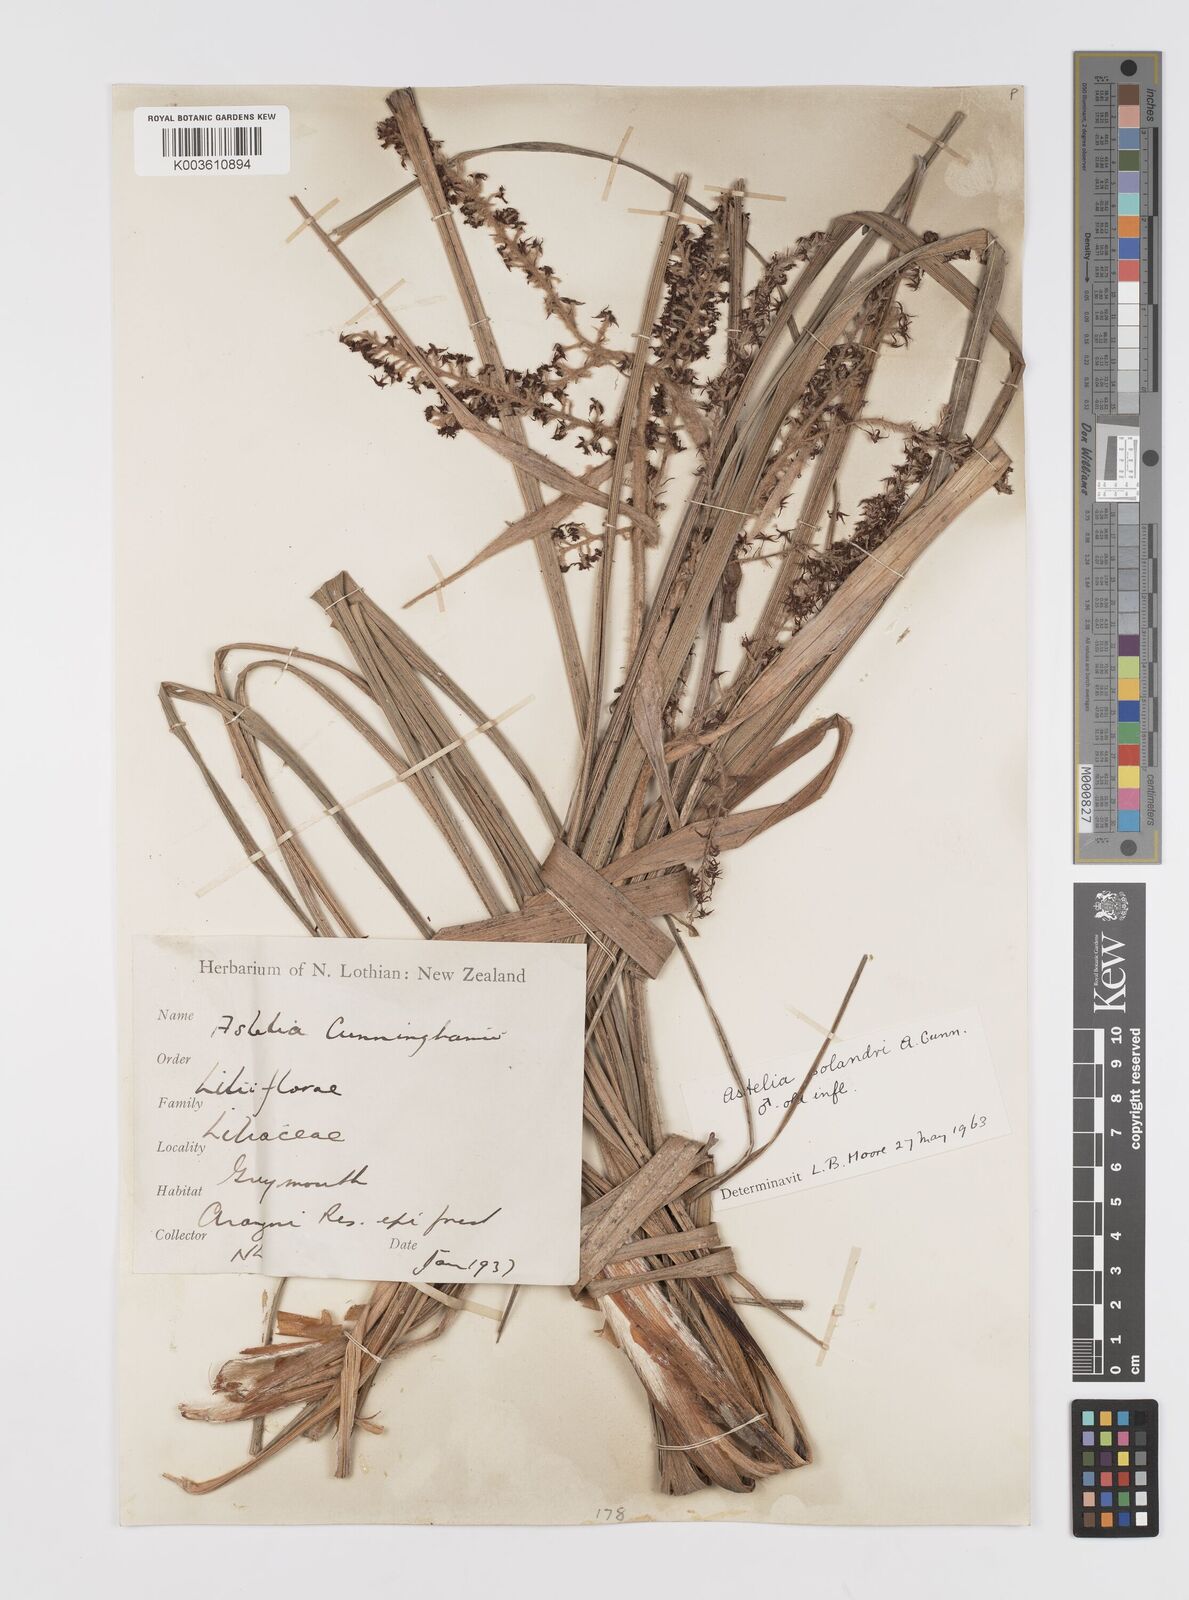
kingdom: Plantae
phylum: Tracheophyta
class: Liliopsida
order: Asparagales
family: Asteliaceae
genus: Astelia
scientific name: Astelia solandri
